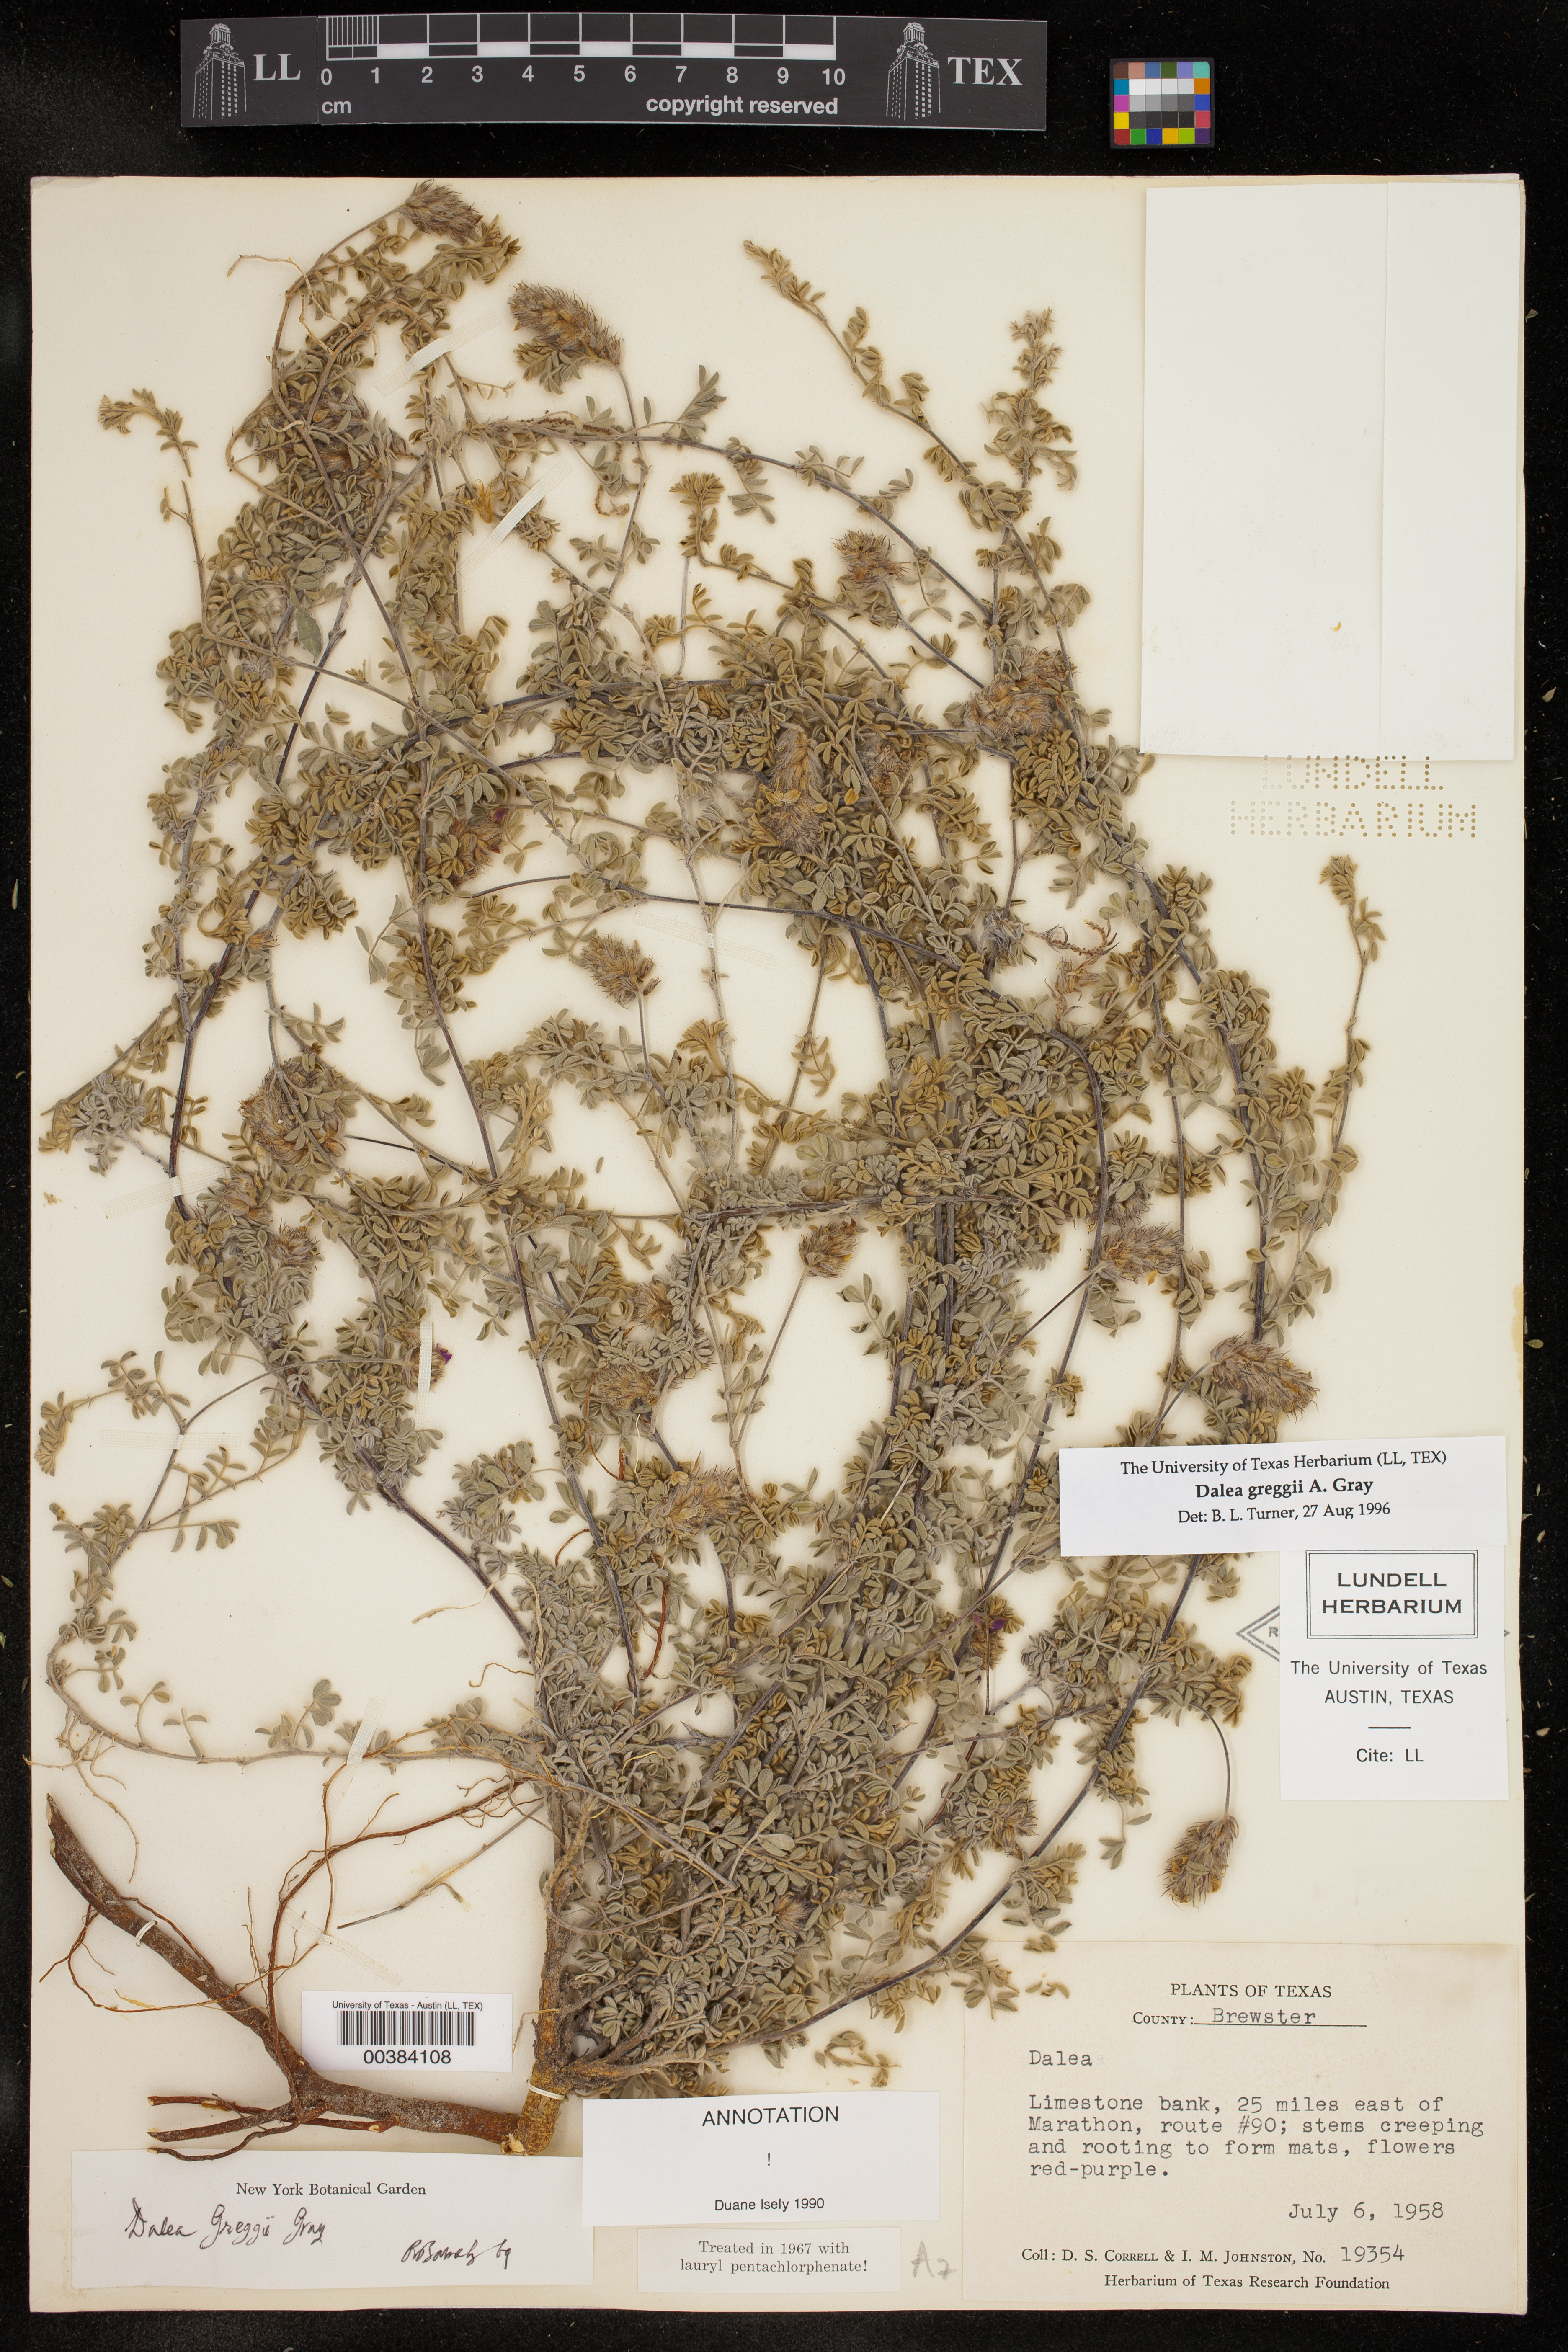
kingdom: Plantae
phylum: Tracheophyta
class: Magnoliopsida
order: Fabales
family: Fabaceae
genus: Dalea
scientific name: Dalea greggii
